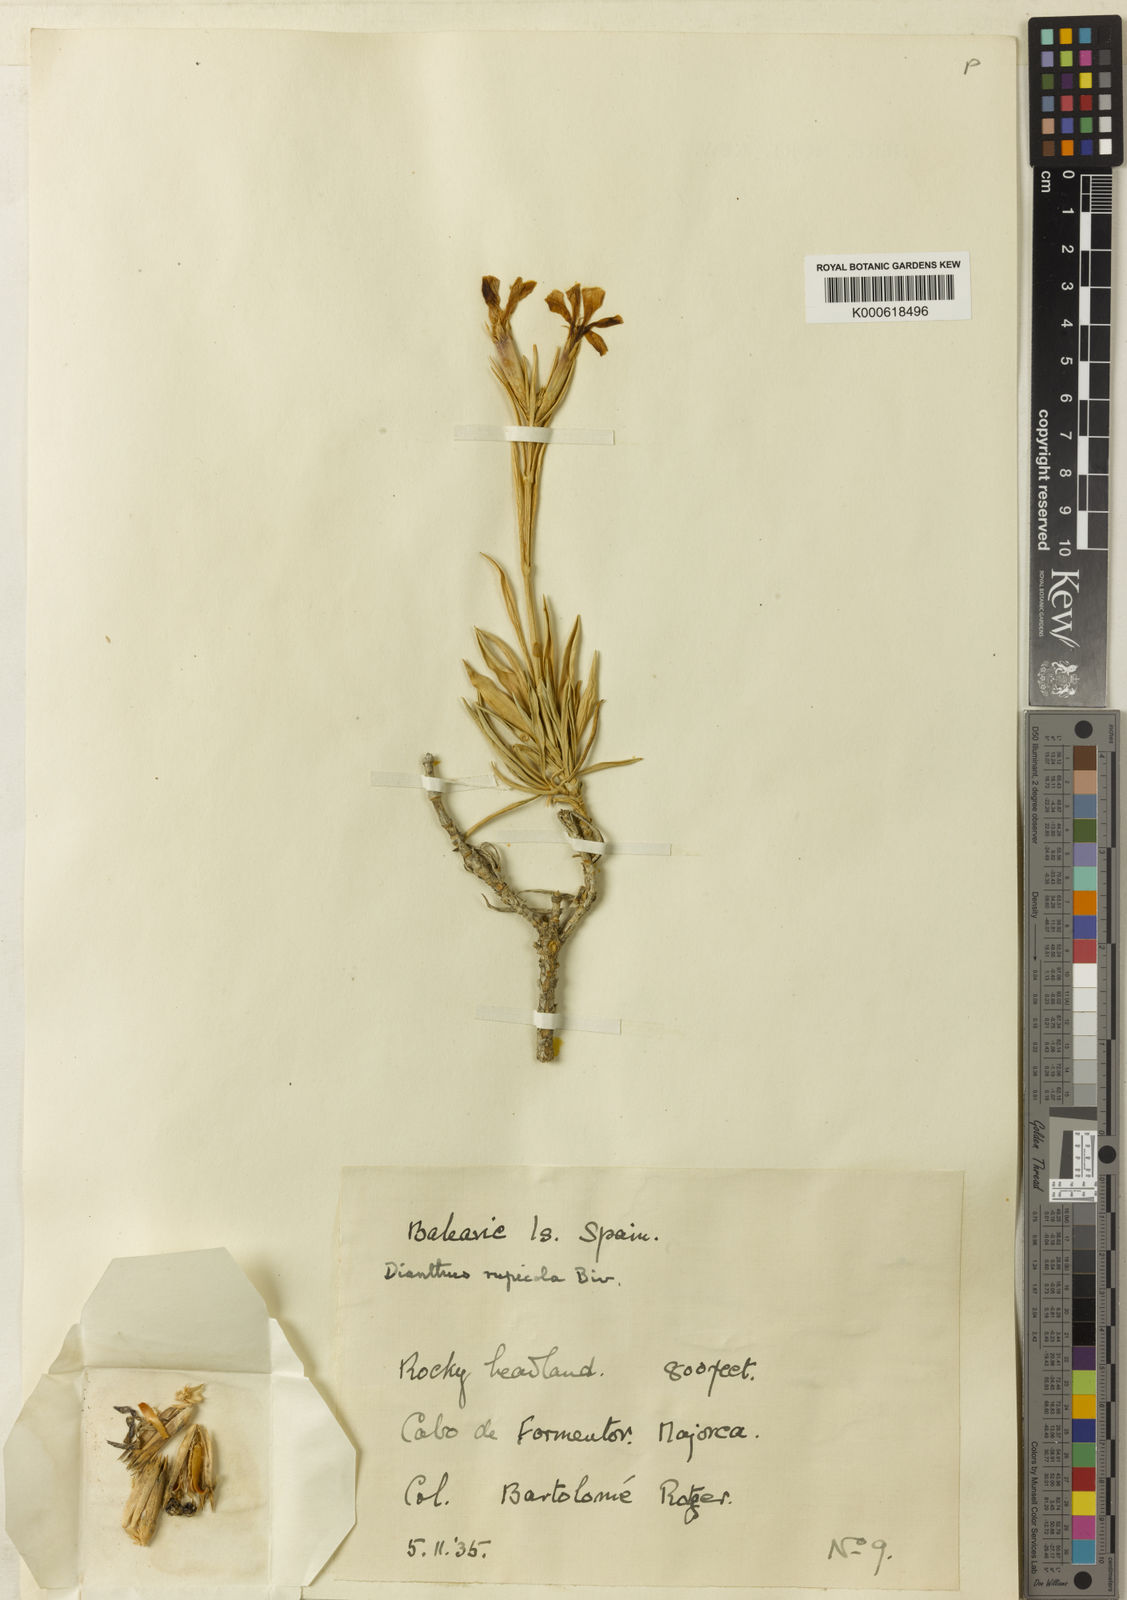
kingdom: Plantae
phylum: Tracheophyta
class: Magnoliopsida
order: Caryophyllales
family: Caryophyllaceae
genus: Dianthus
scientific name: Dianthus rupicola
